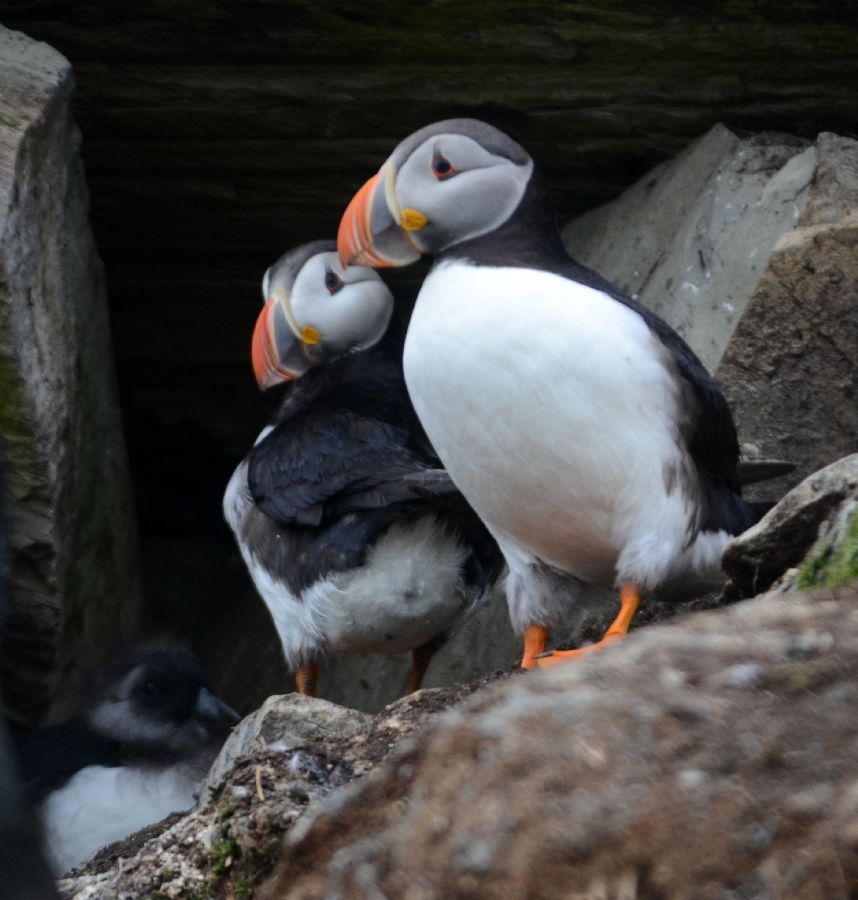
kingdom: Animalia
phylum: Chordata
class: Aves
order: Charadriiformes
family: Alcidae
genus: Fratercula
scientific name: Fratercula arctica
